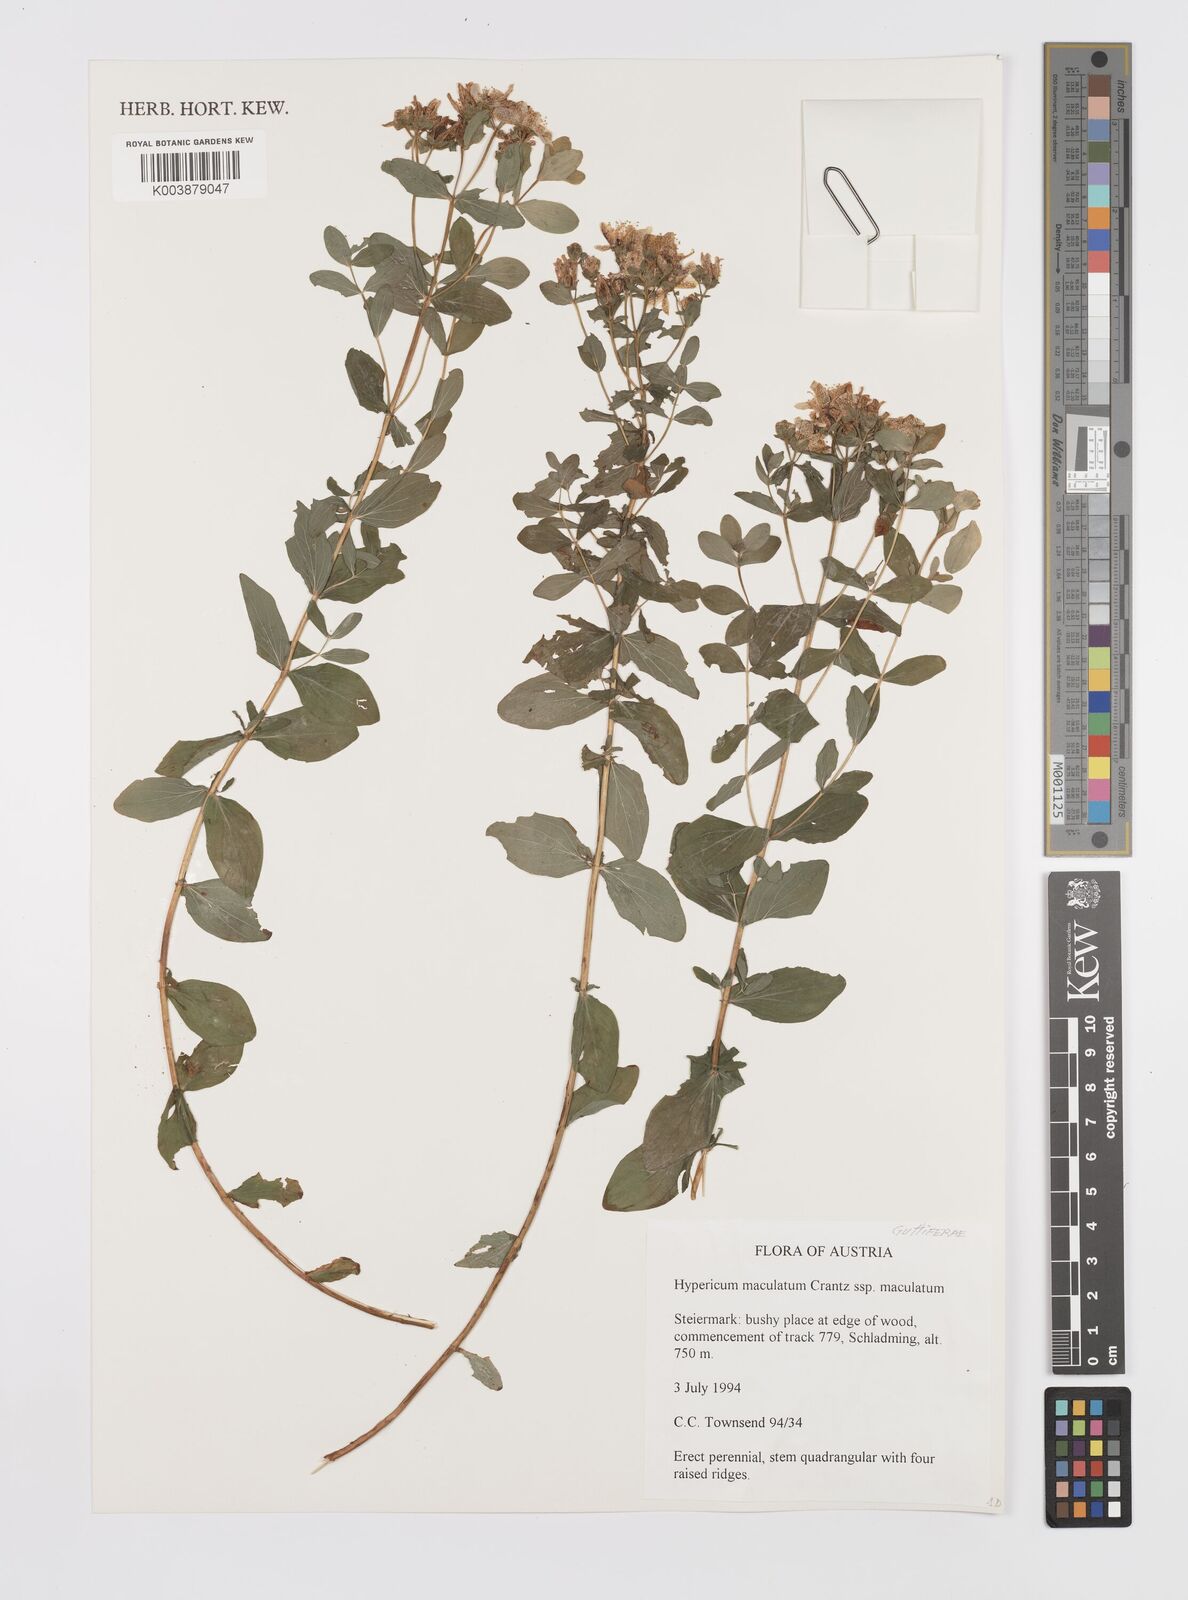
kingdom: Plantae
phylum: Tracheophyta
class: Magnoliopsida
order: Malpighiales
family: Hypericaceae
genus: Hypericum
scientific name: Hypericum maculatum
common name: Imperforate st. john's-wort
